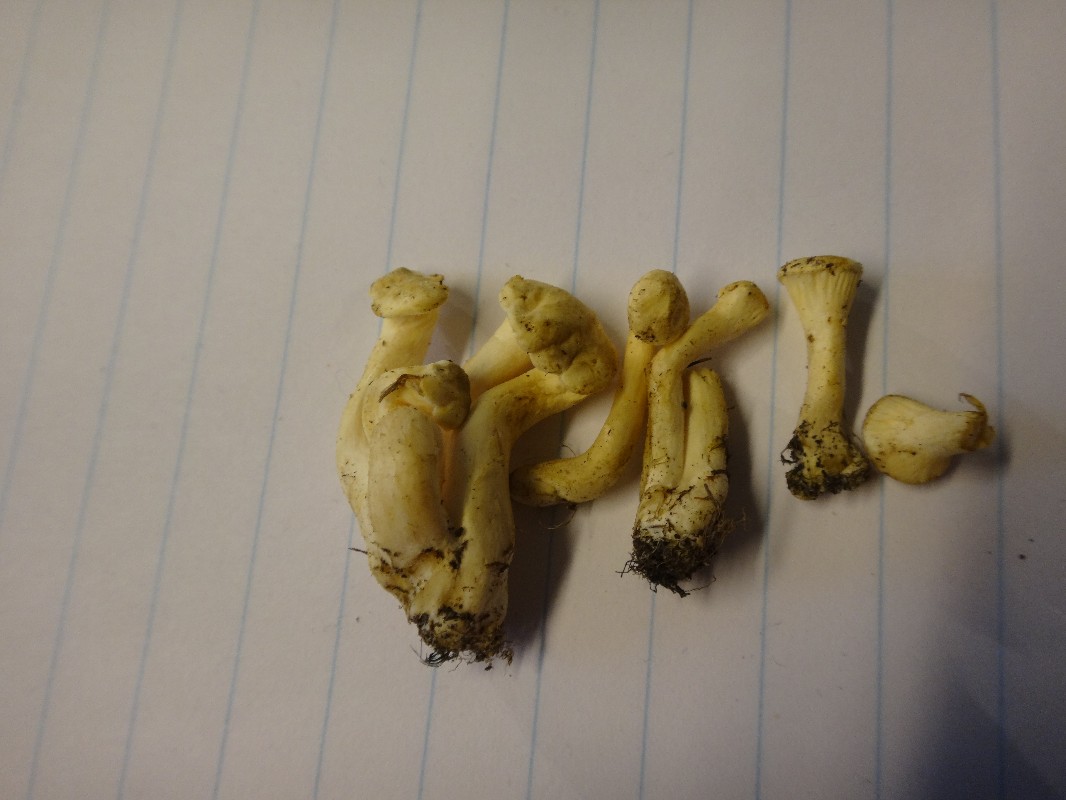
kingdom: Fungi
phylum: Basidiomycota
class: Agaricomycetes
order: Boletales
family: Hygrophoropsidaceae
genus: Hygrophoropsis
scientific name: Hygrophoropsis pallida
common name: bleg orangekantarel
